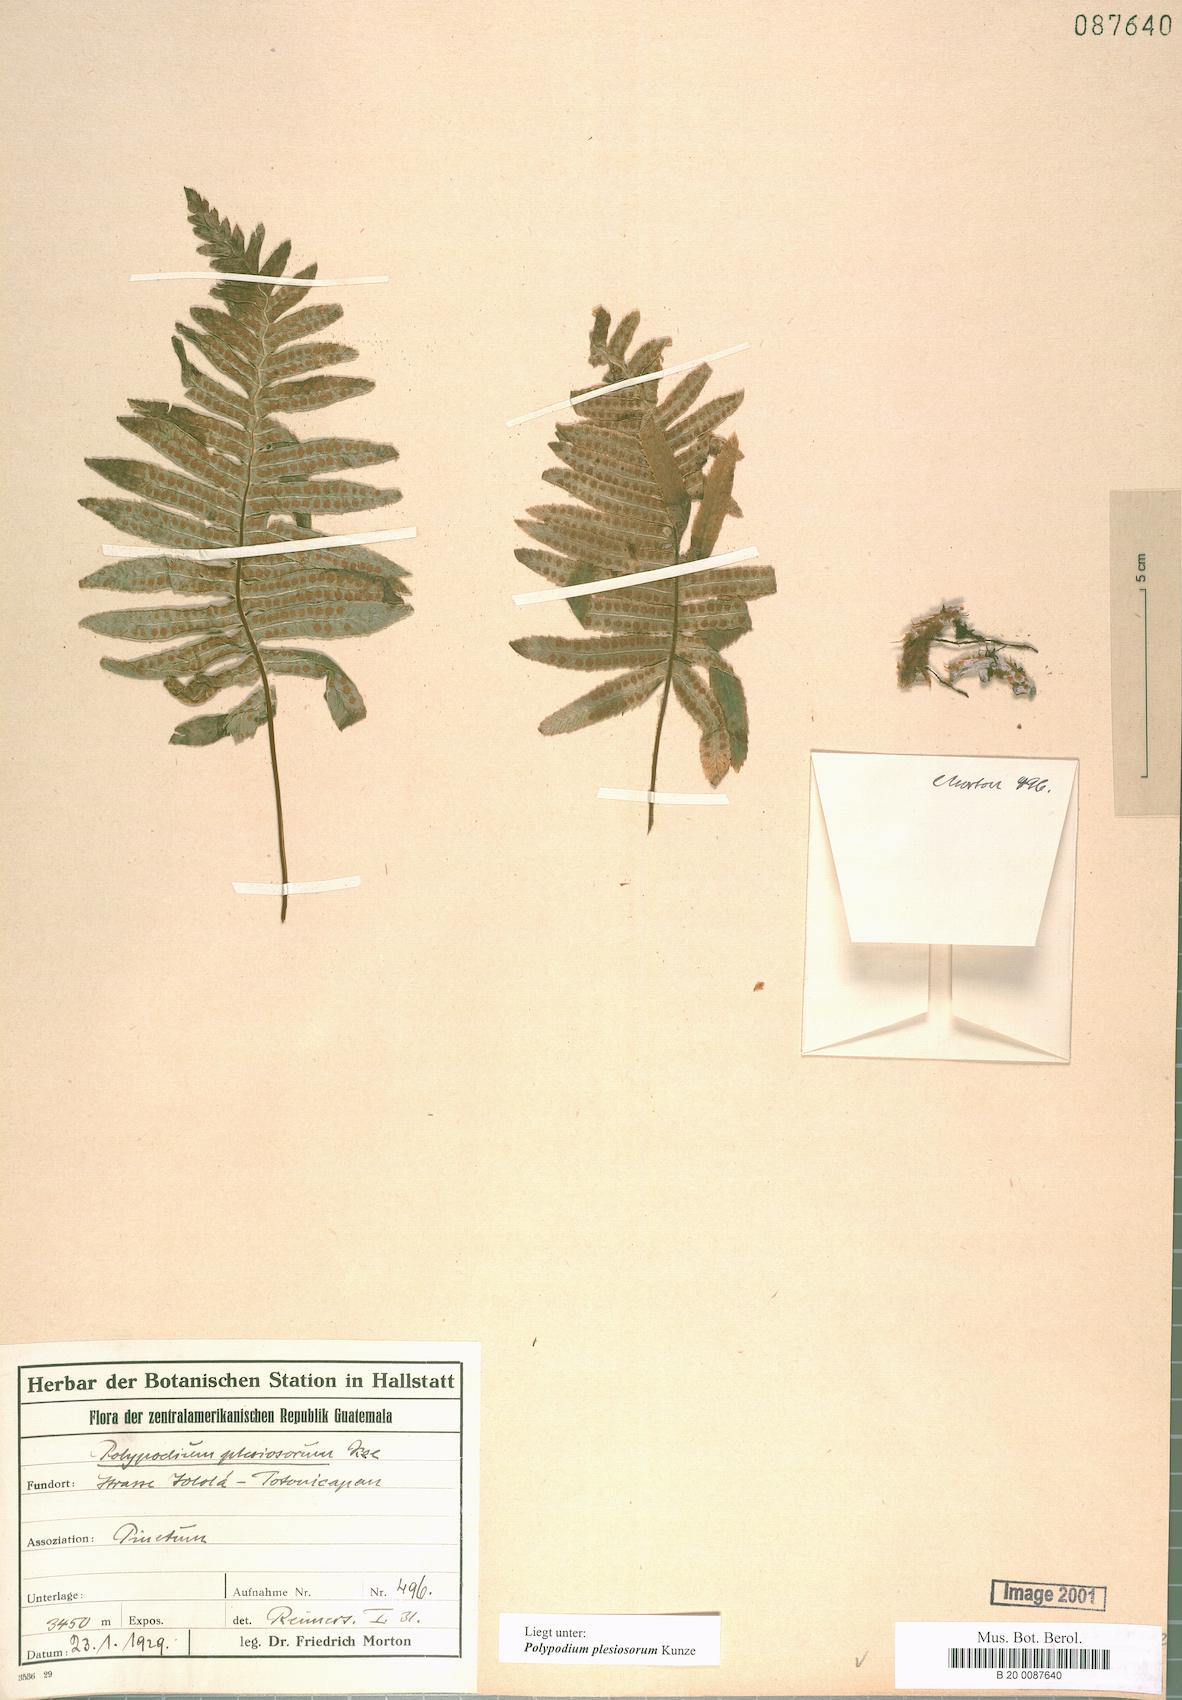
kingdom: Plantae
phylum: Tracheophyta
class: Polypodiopsida
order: Polypodiales
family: Polypodiaceae
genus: Polypodium
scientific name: Polypodium plesiosorum
